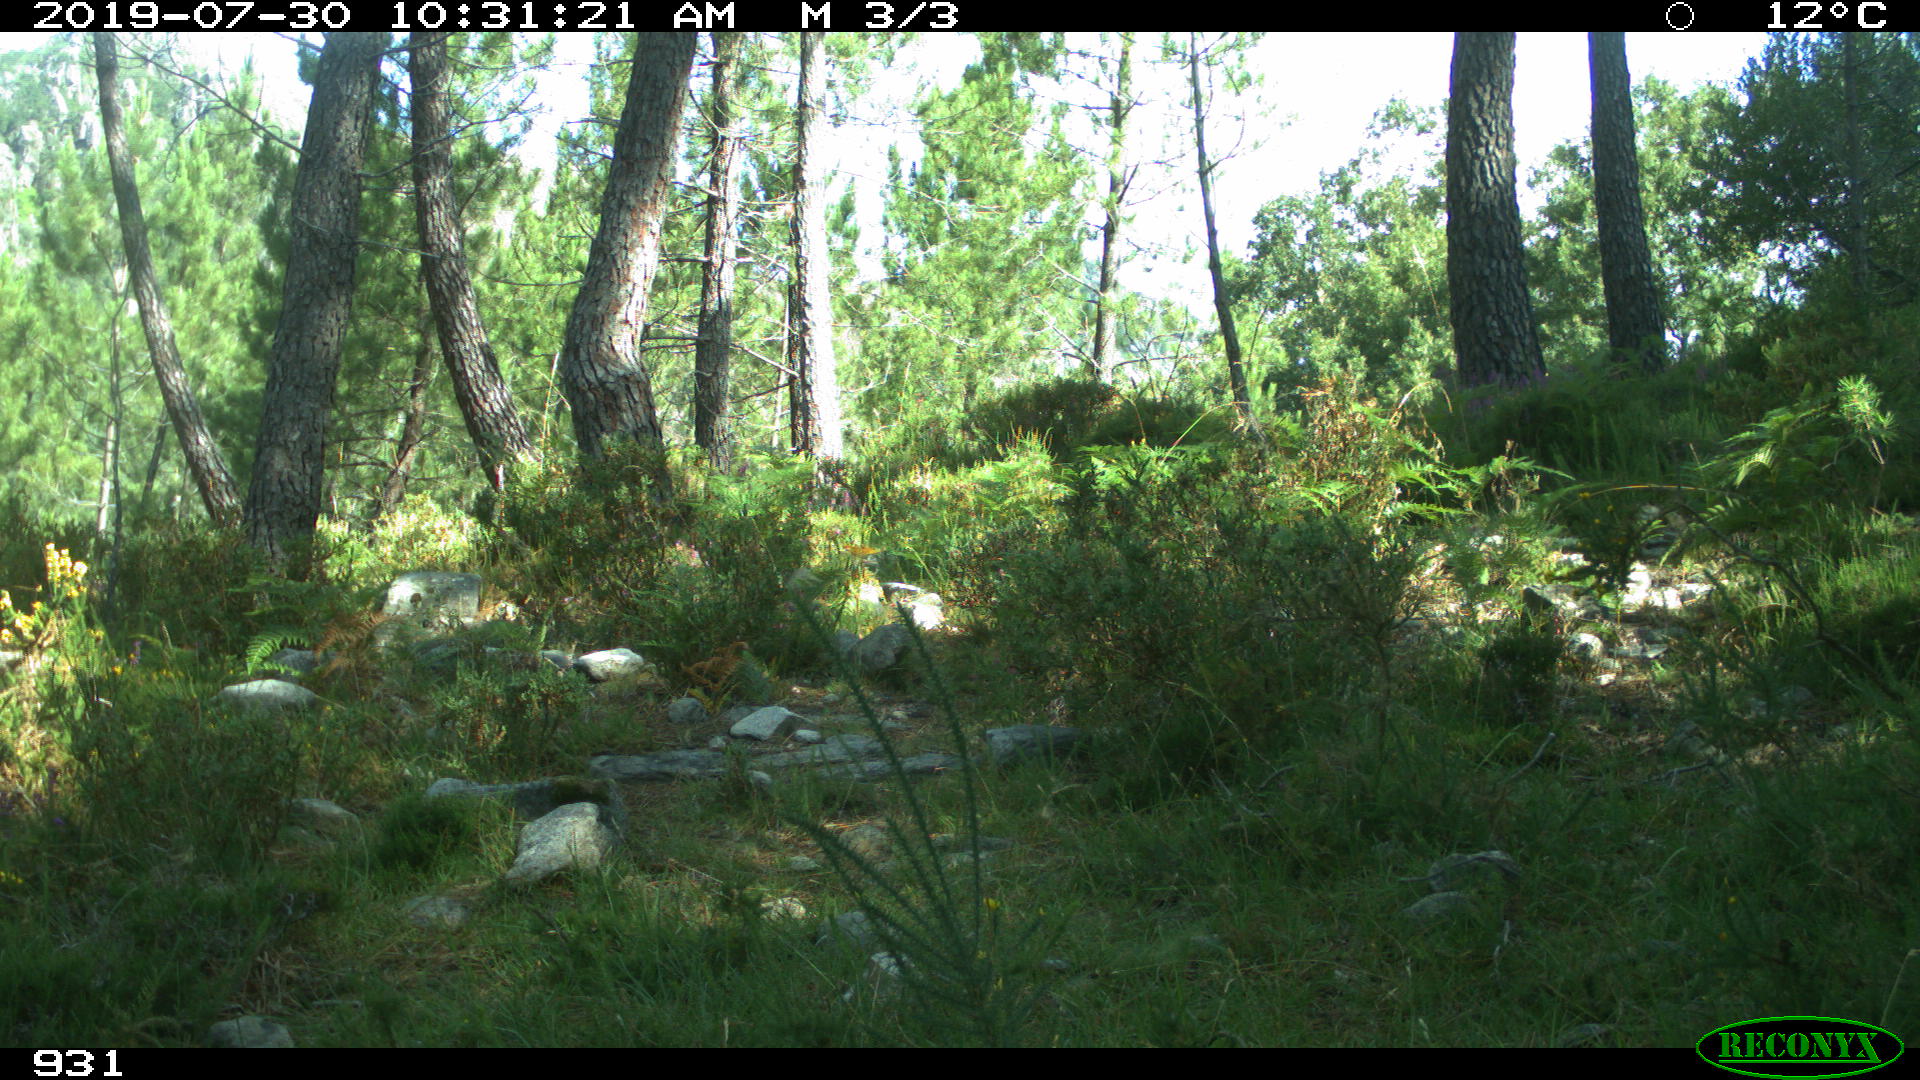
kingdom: Animalia
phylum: Chordata
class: Mammalia
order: Artiodactyla
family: Cervidae
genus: Capreolus
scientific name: Capreolus capreolus
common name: Western roe deer
